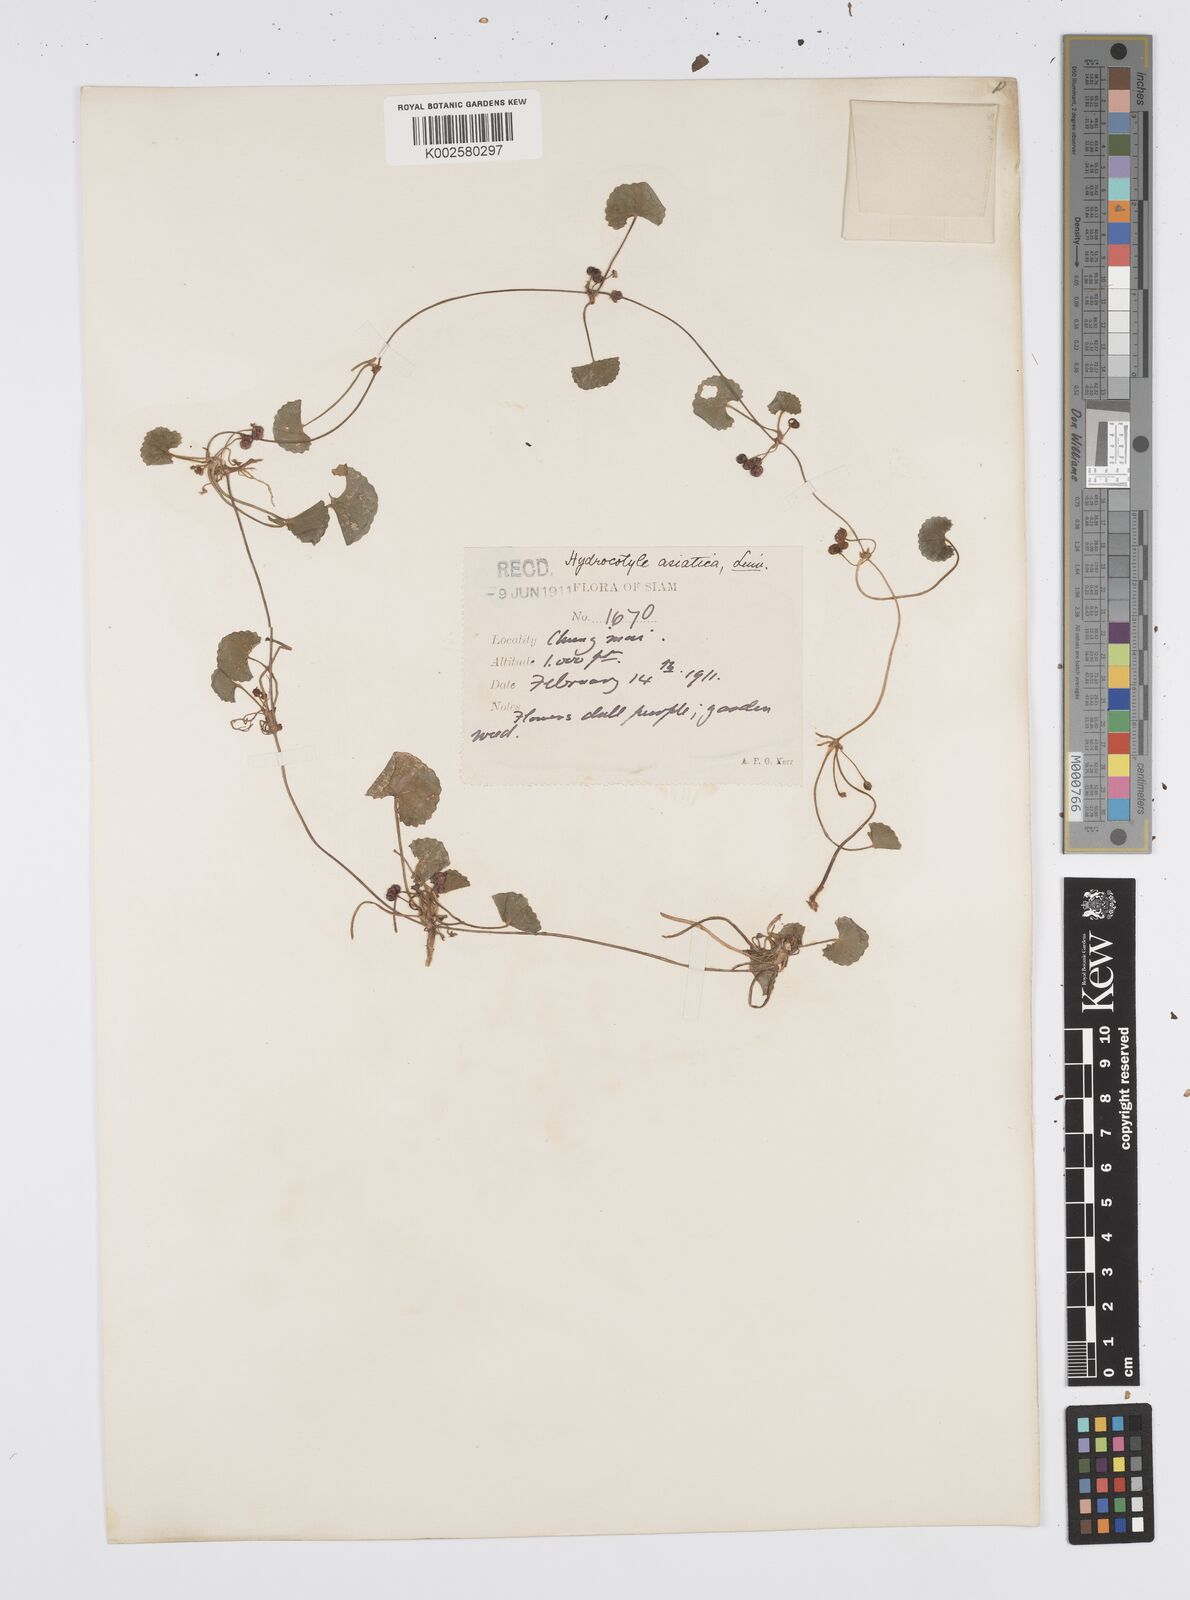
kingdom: Plantae
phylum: Tracheophyta
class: Magnoliopsida
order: Apiales
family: Apiaceae
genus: Centella
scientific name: Centella asiatica
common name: Spadeleaf
